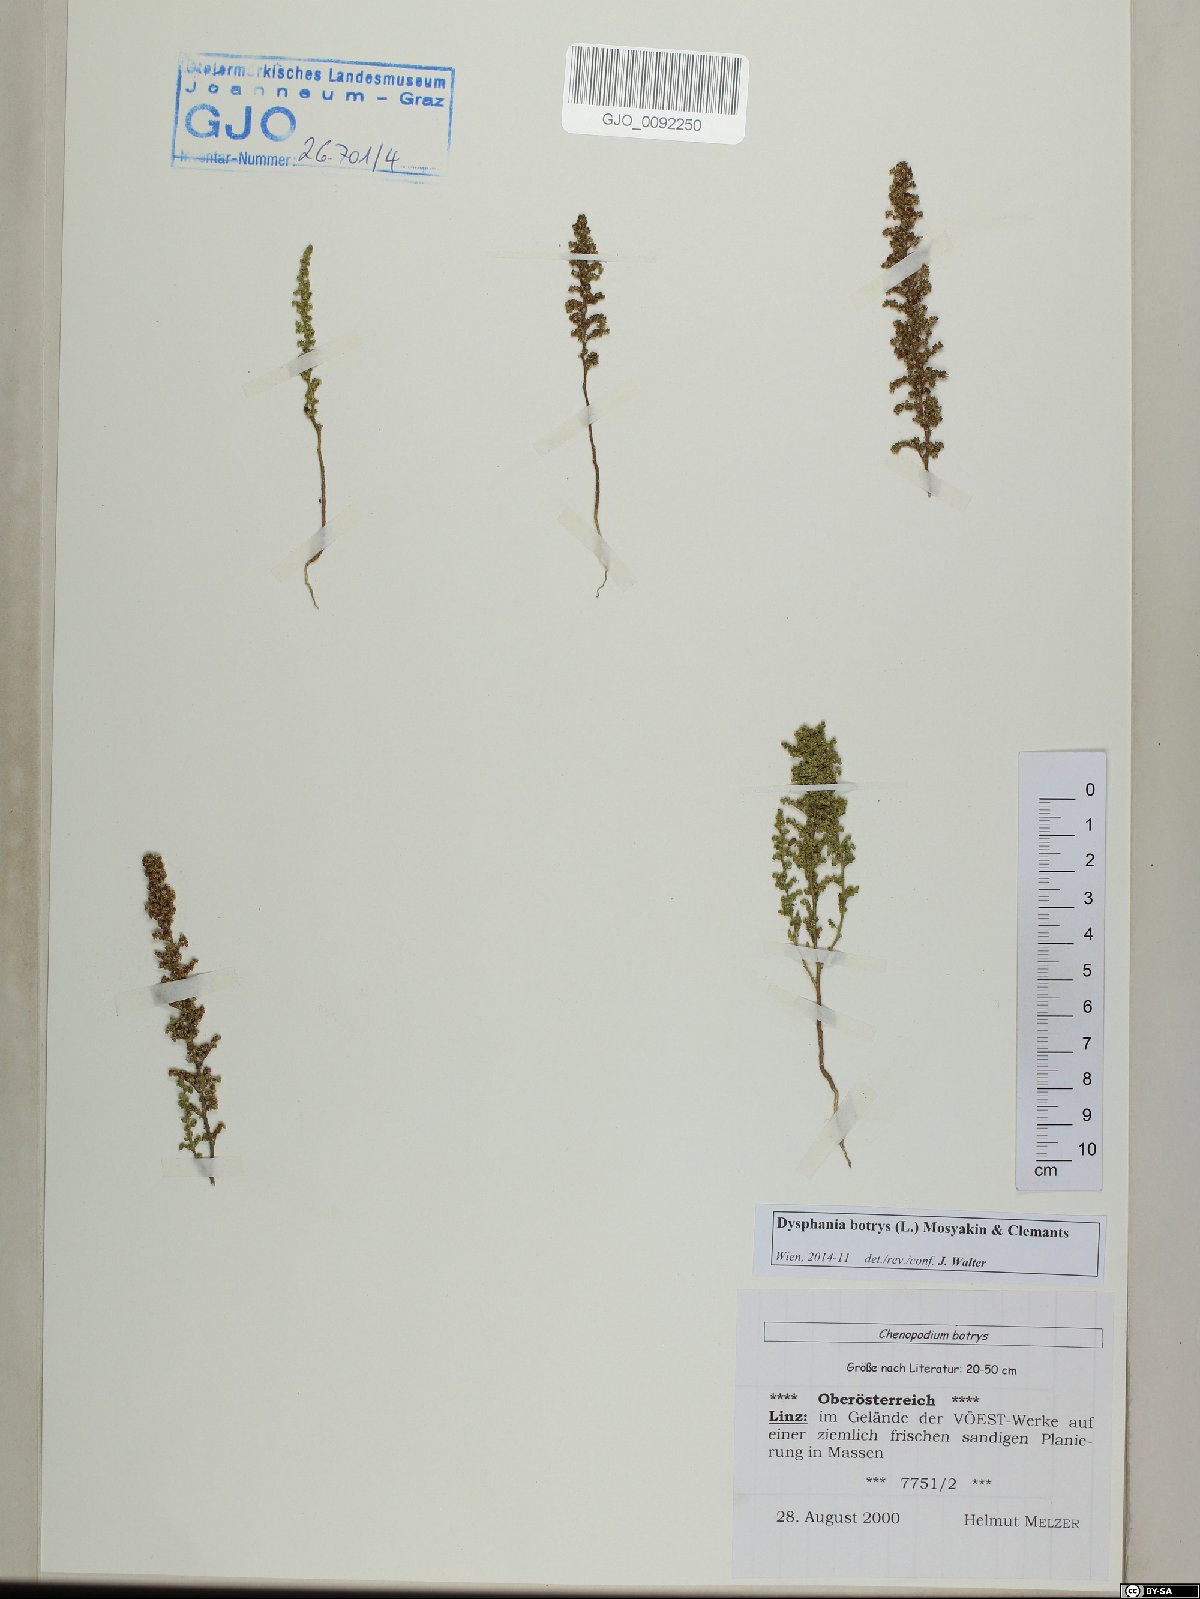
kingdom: Plantae
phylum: Tracheophyta
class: Magnoliopsida
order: Caryophyllales
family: Amaranthaceae
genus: Dysphania
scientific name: Dysphania botrys
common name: Feather-geranium
